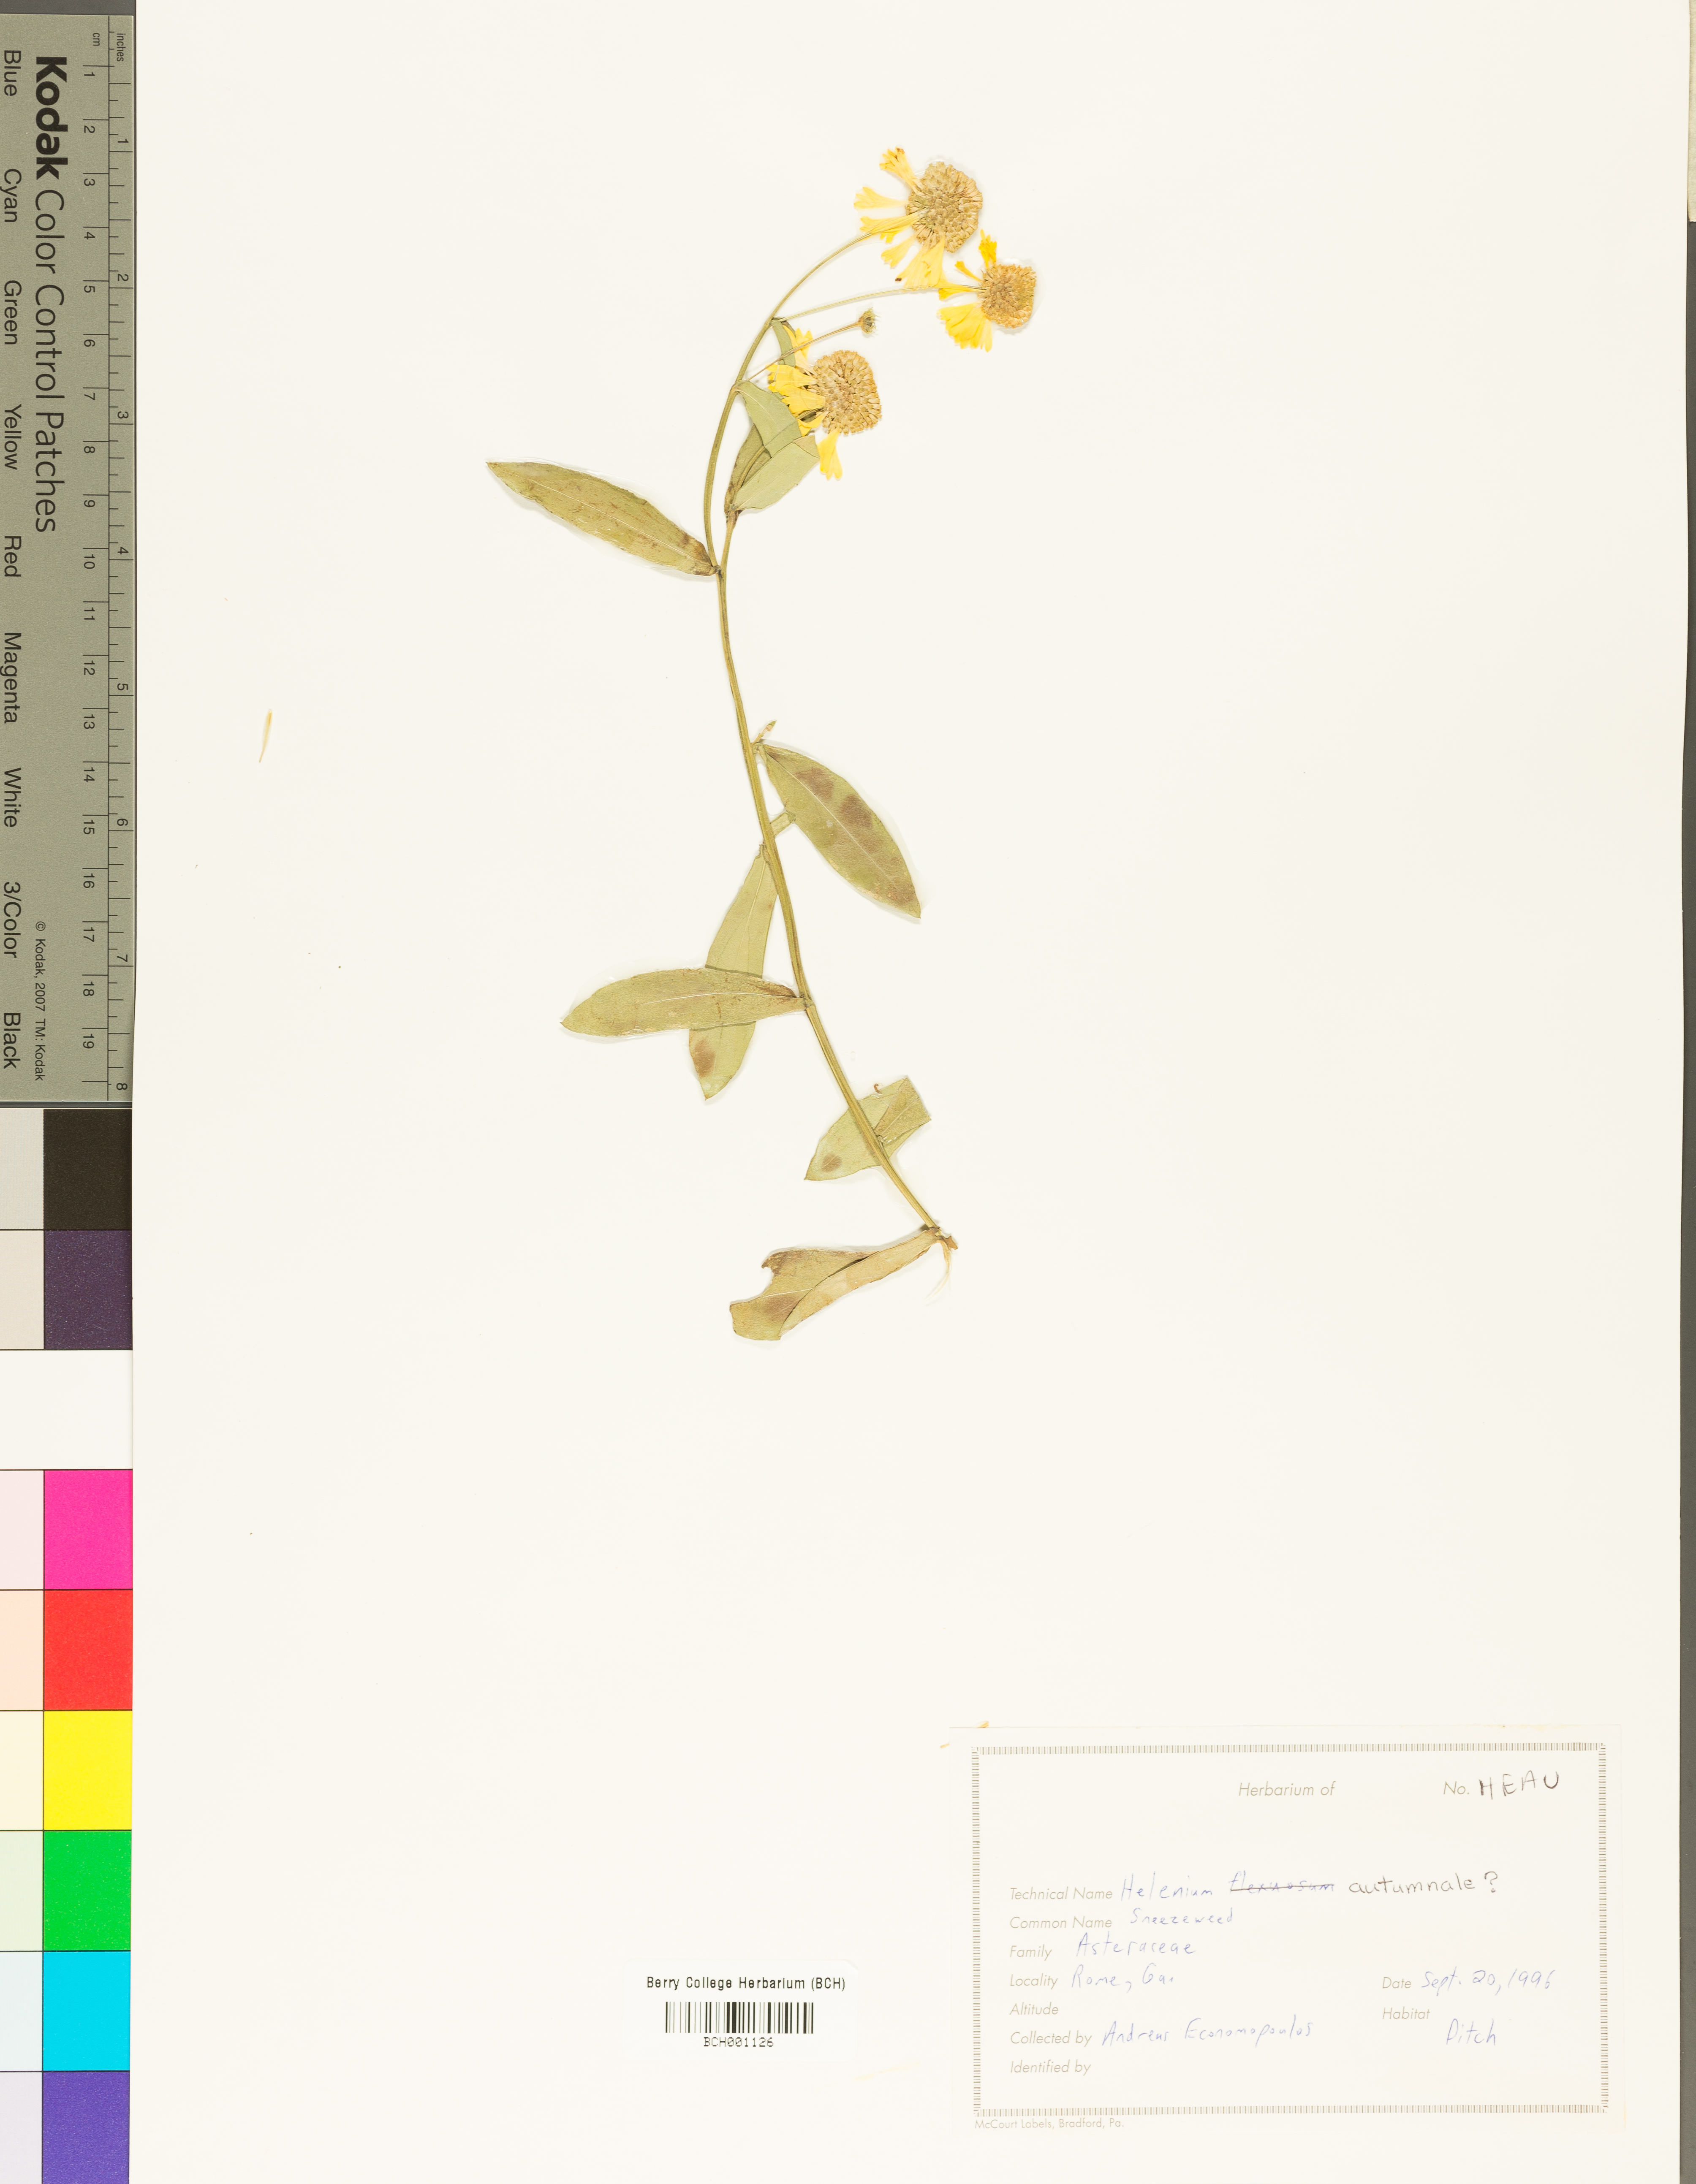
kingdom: Plantae
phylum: Tracheophyta
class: Magnoliopsida
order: Asterales
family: Asteraceae
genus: Helenium
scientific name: Helenium autumnale
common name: Sneezeweed
